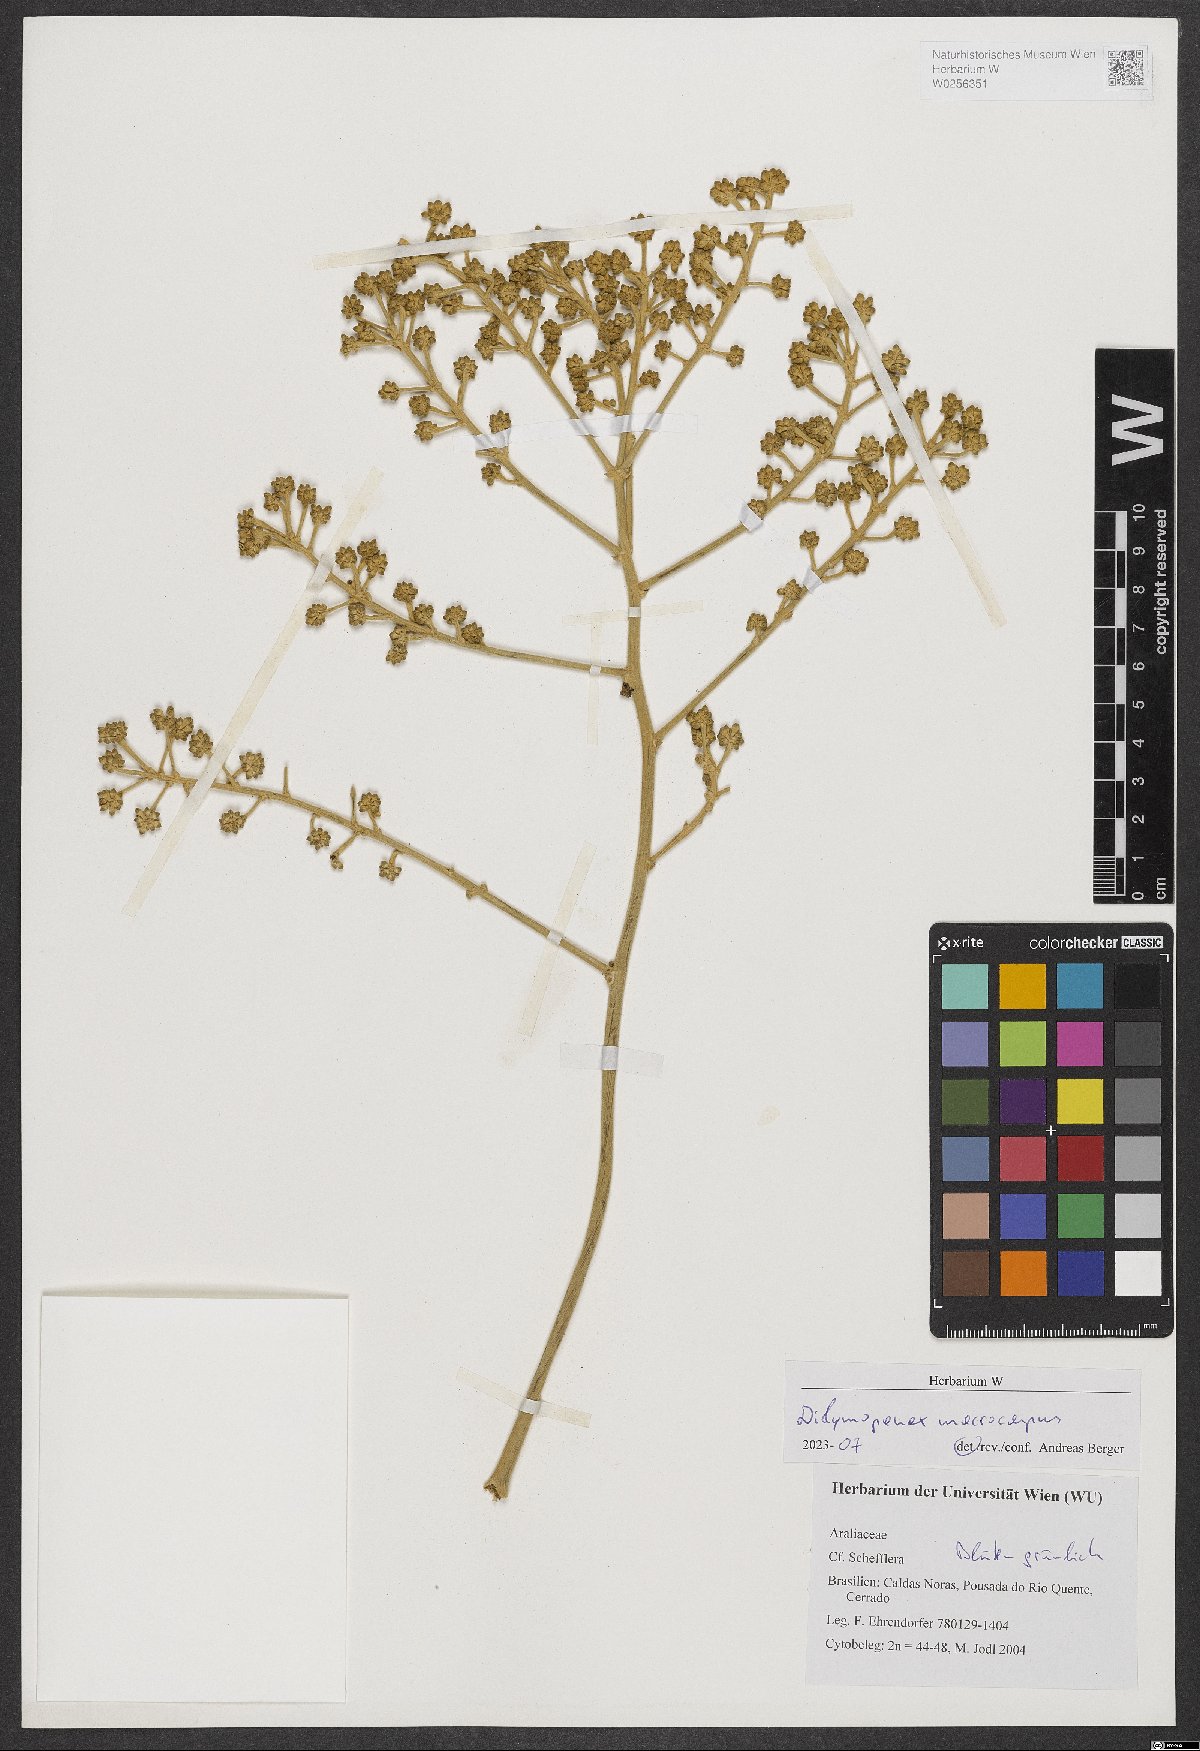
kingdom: Plantae
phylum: Tracheophyta
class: Magnoliopsida
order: Apiales
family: Araliaceae
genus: Didymopanax
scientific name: Didymopanax macrocarpus
